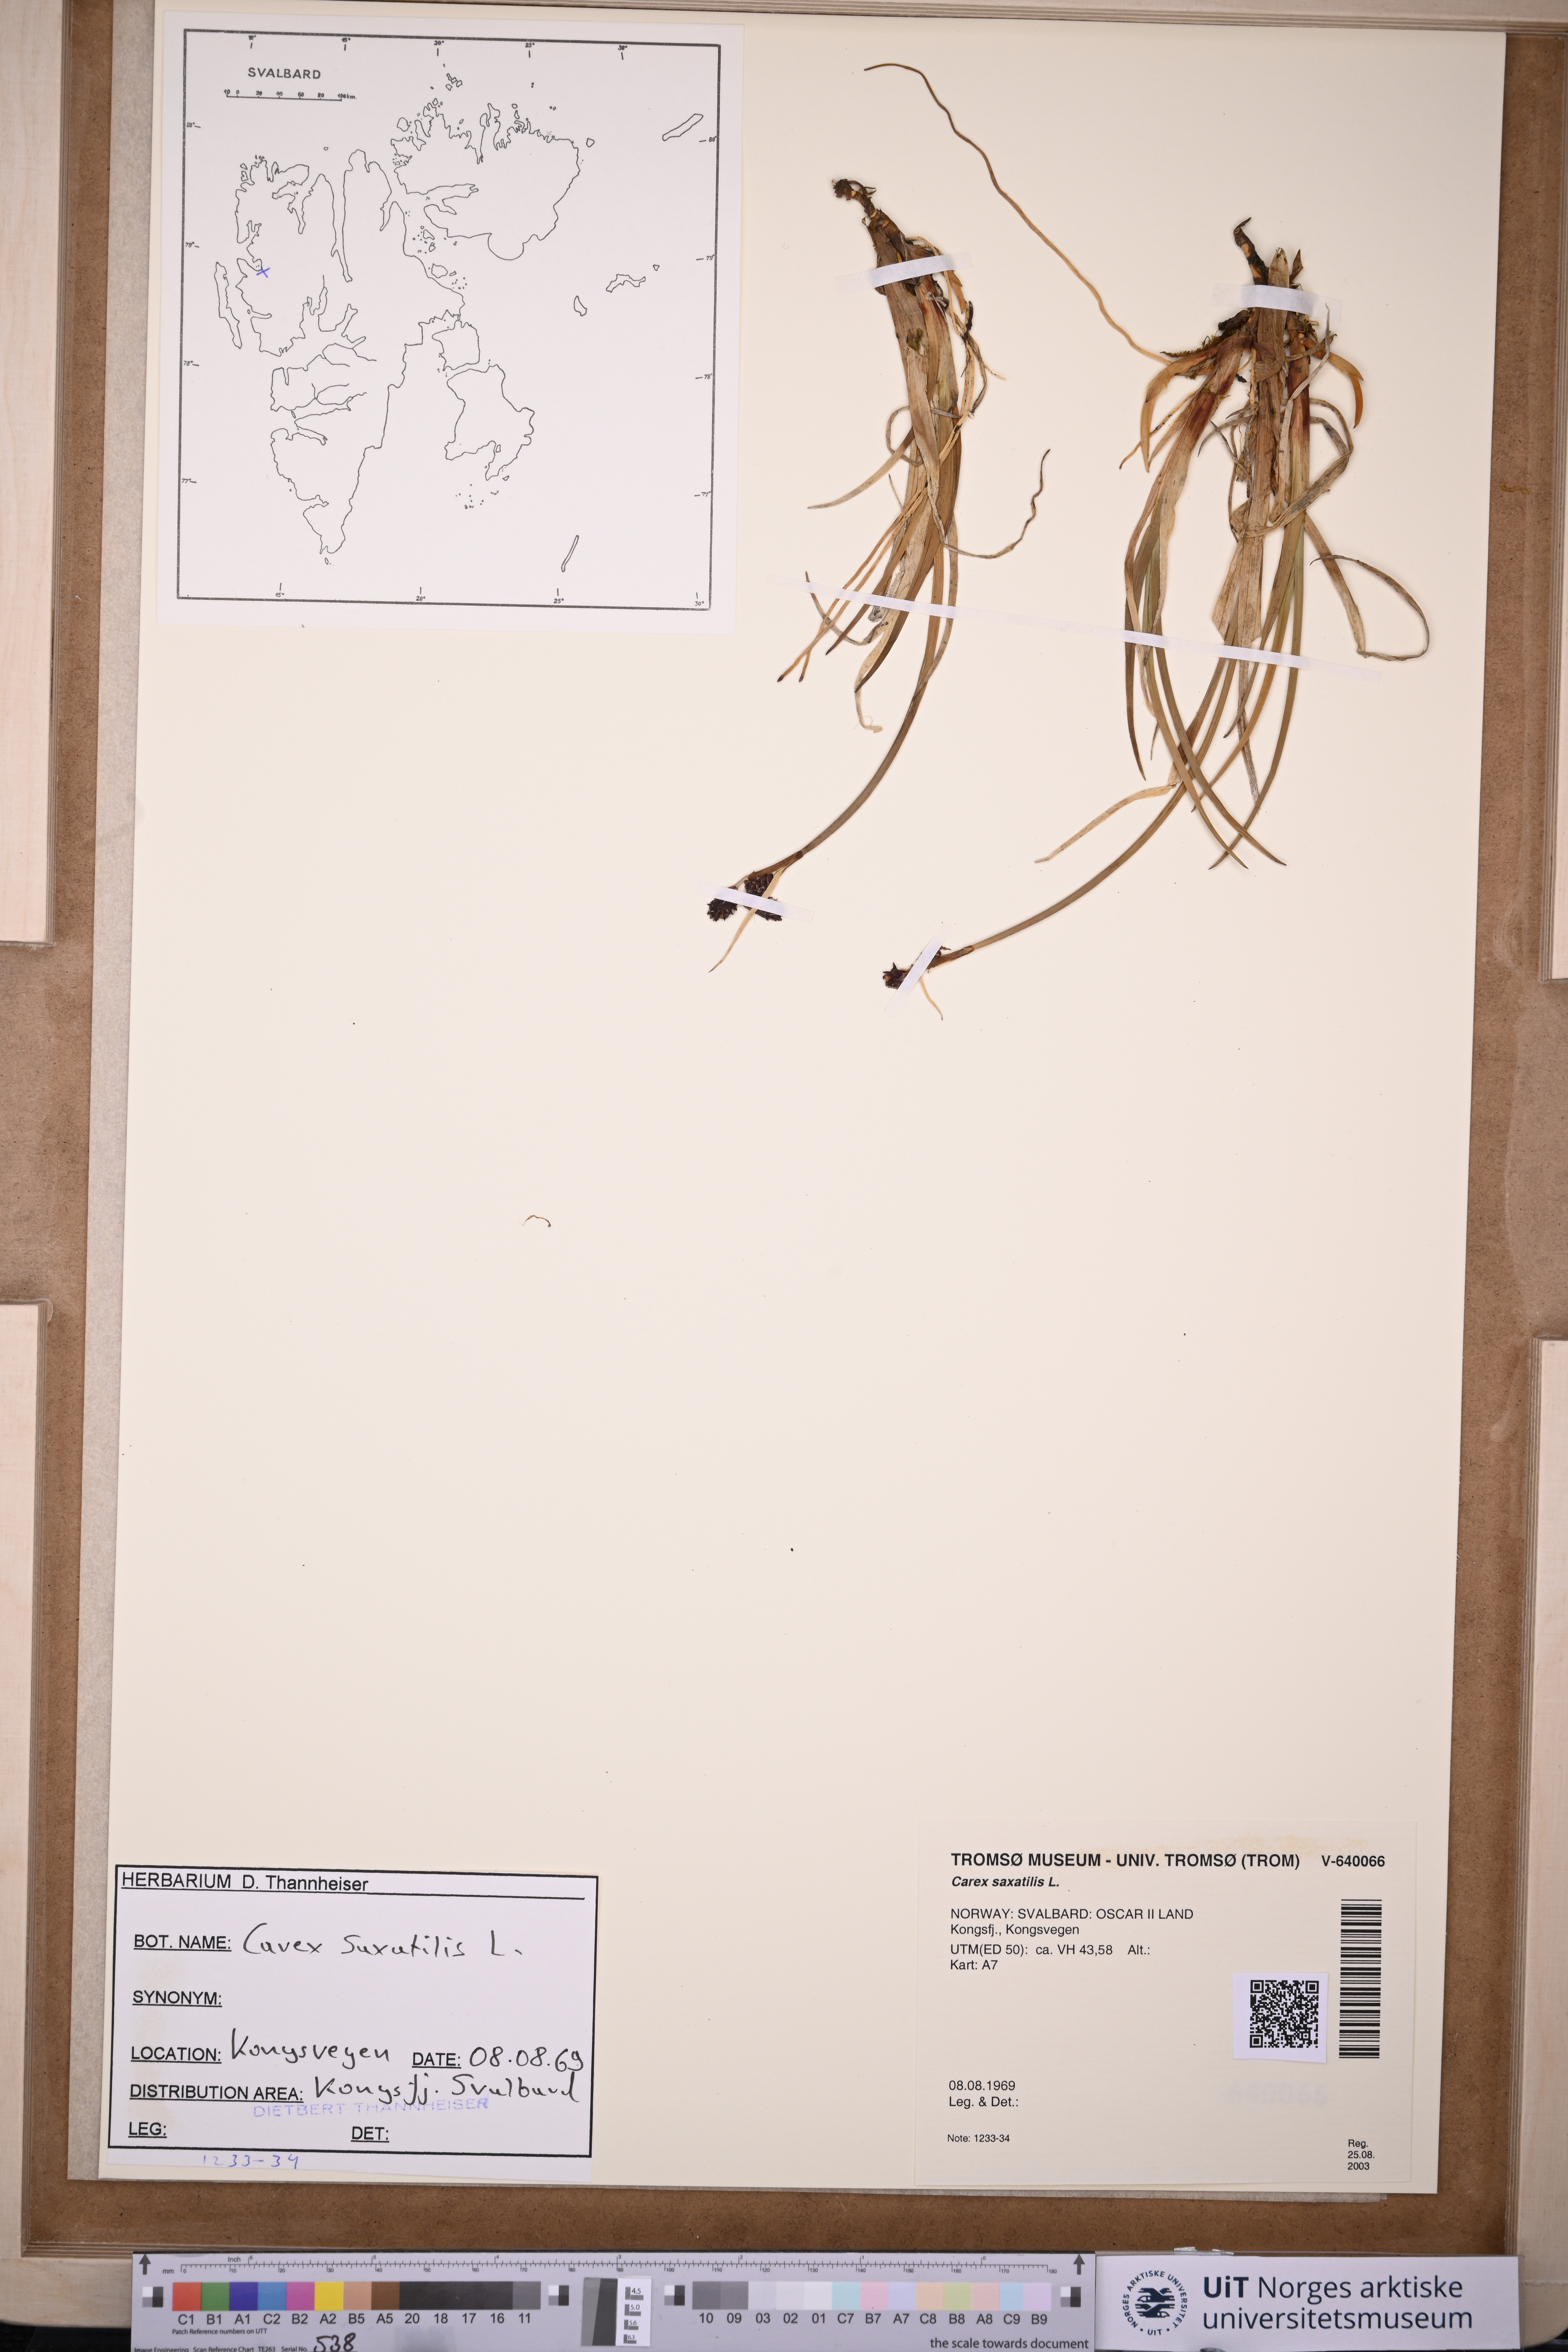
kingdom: Plantae
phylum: Tracheophyta
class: Liliopsida
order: Poales
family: Cyperaceae
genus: Carex
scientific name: Carex saxatilis
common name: Russet sedge
